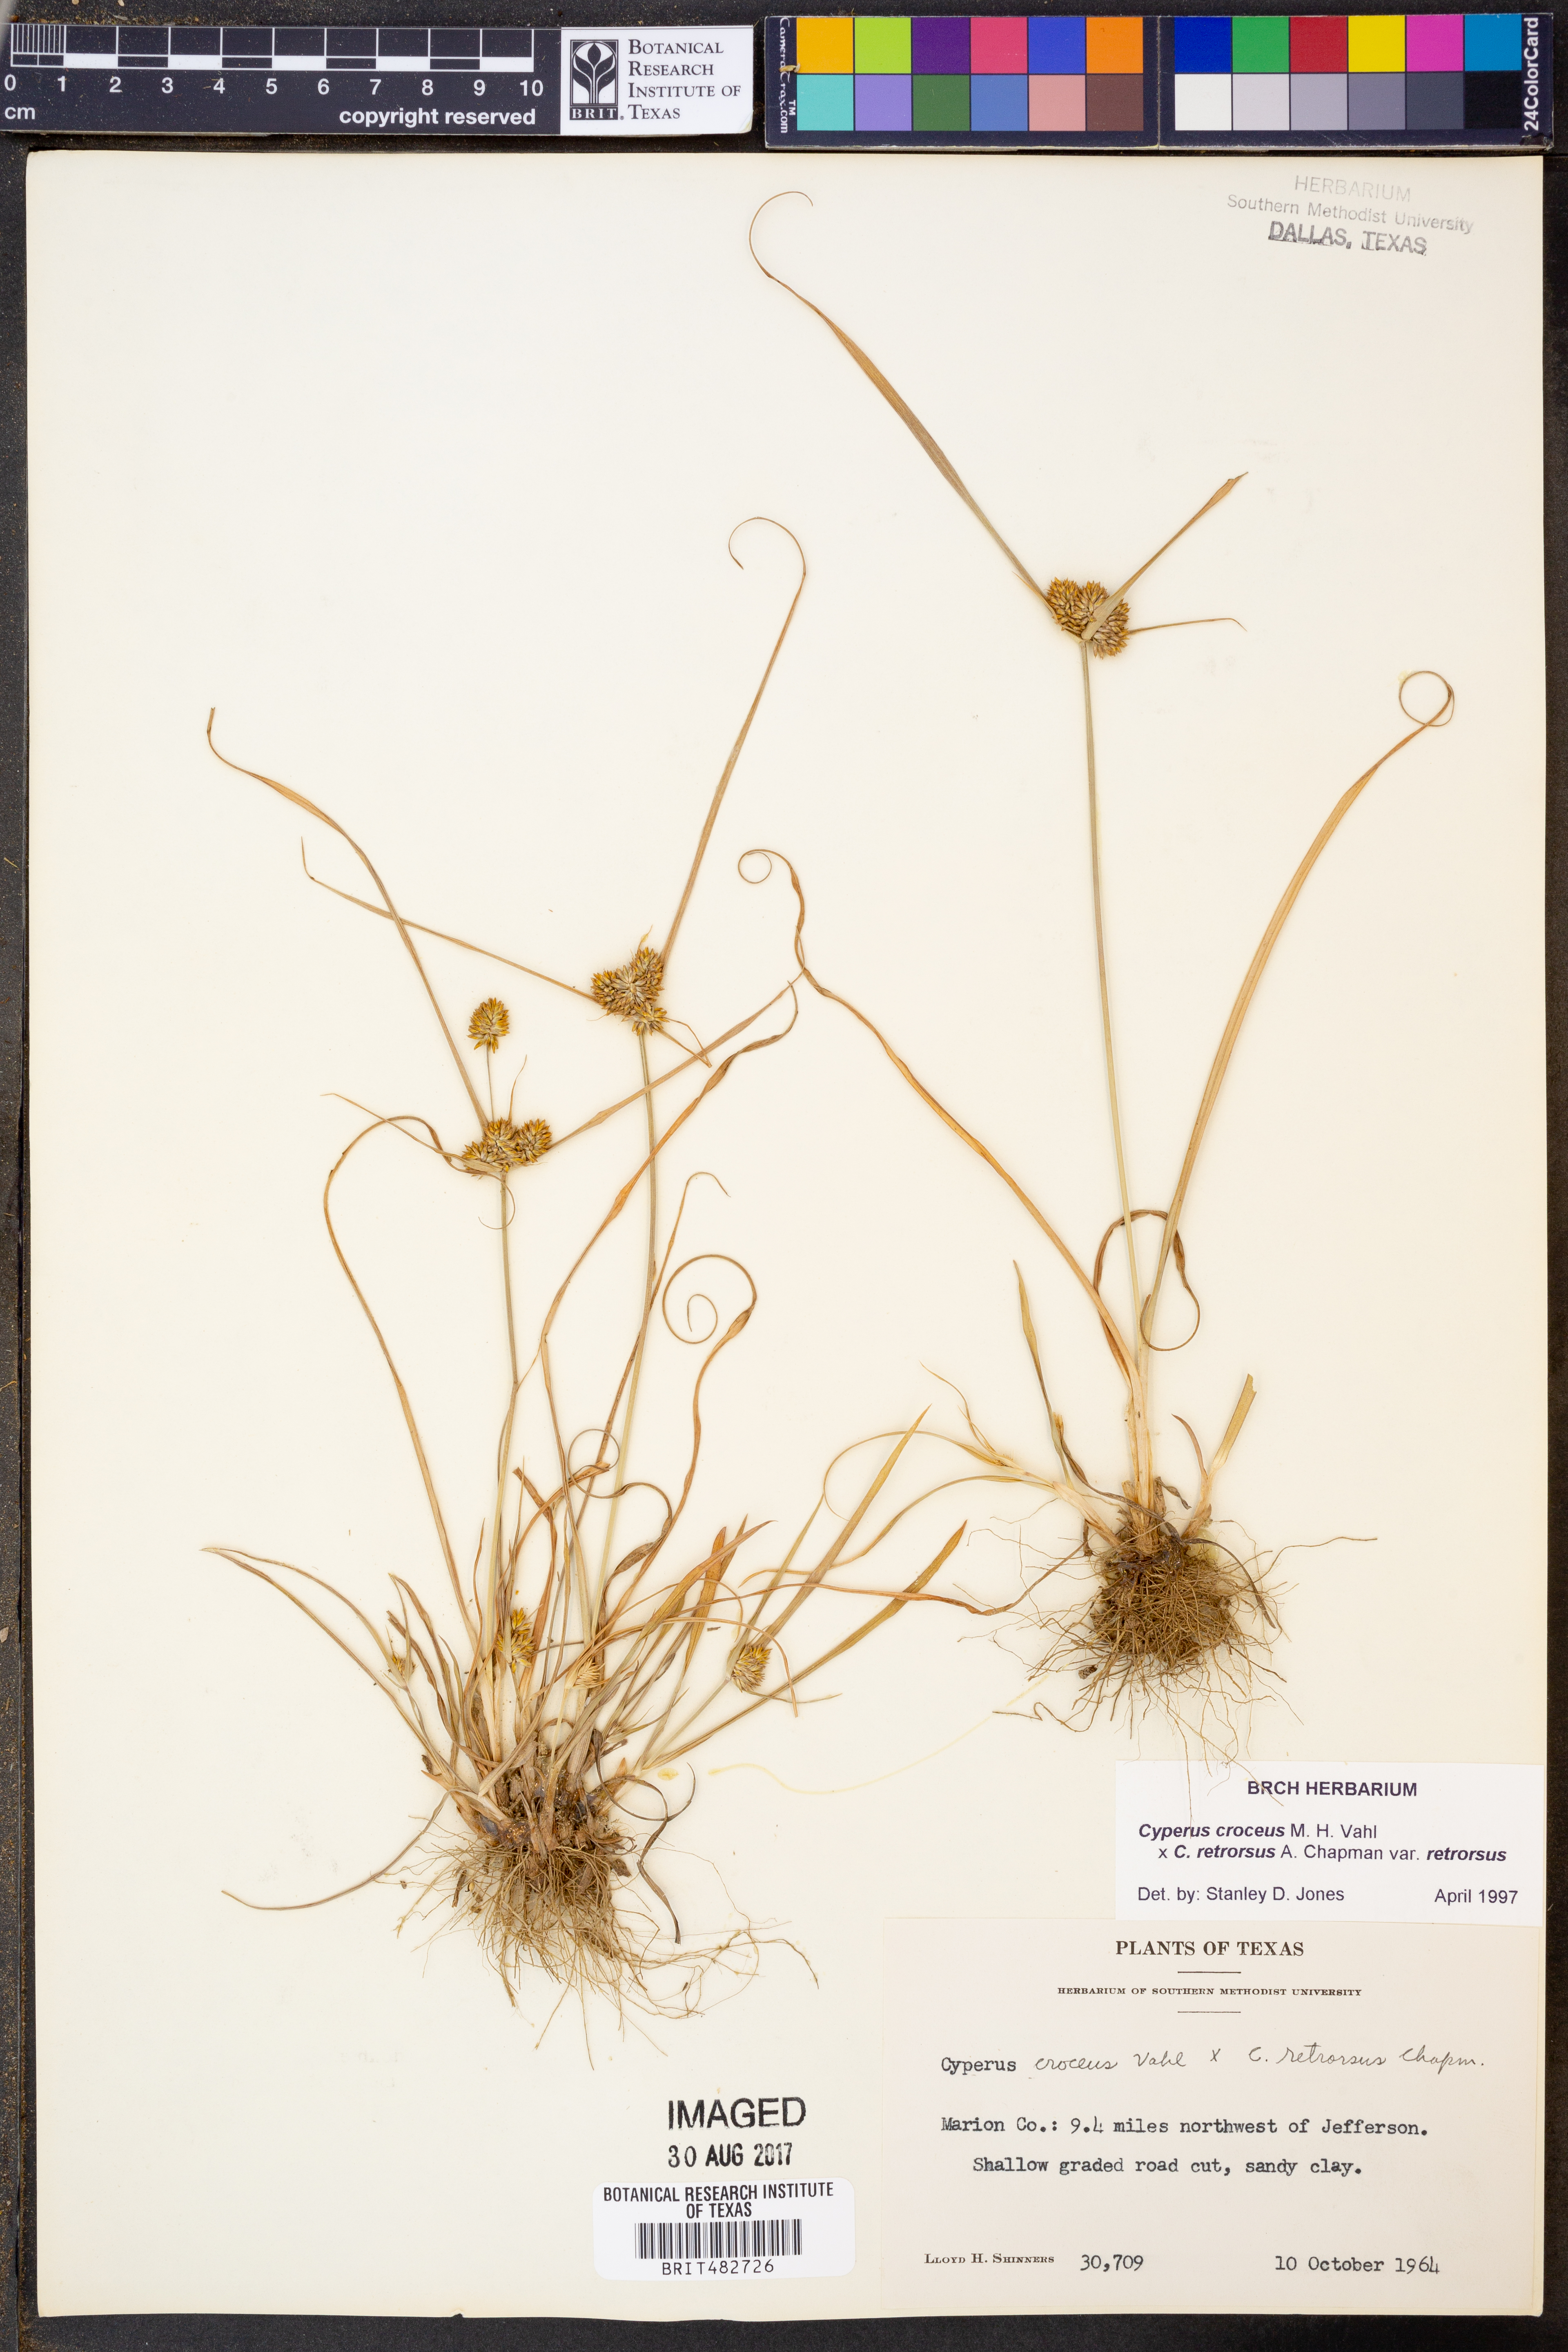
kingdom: Plantae
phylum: Tracheophyta
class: Liliopsida
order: Poales
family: Cyperaceae
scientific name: Cyperaceae
